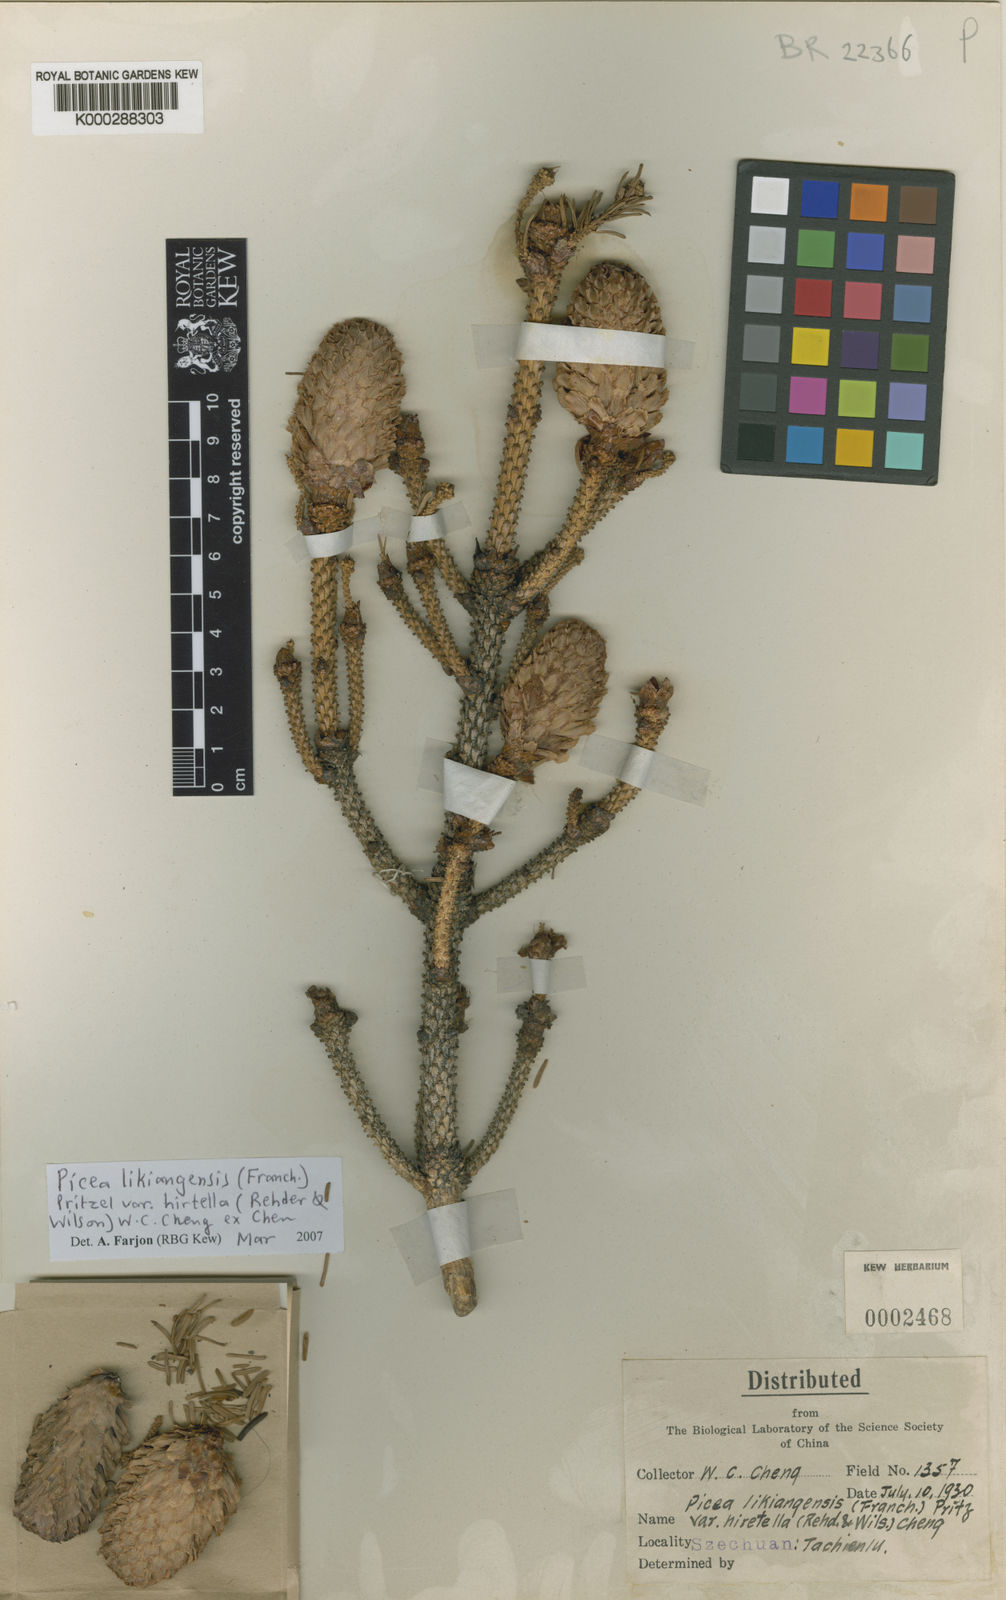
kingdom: Plantae
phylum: Tracheophyta
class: Pinopsida
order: Pinales
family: Pinaceae
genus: Picea
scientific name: Picea likiangensis
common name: Likiang spruce
